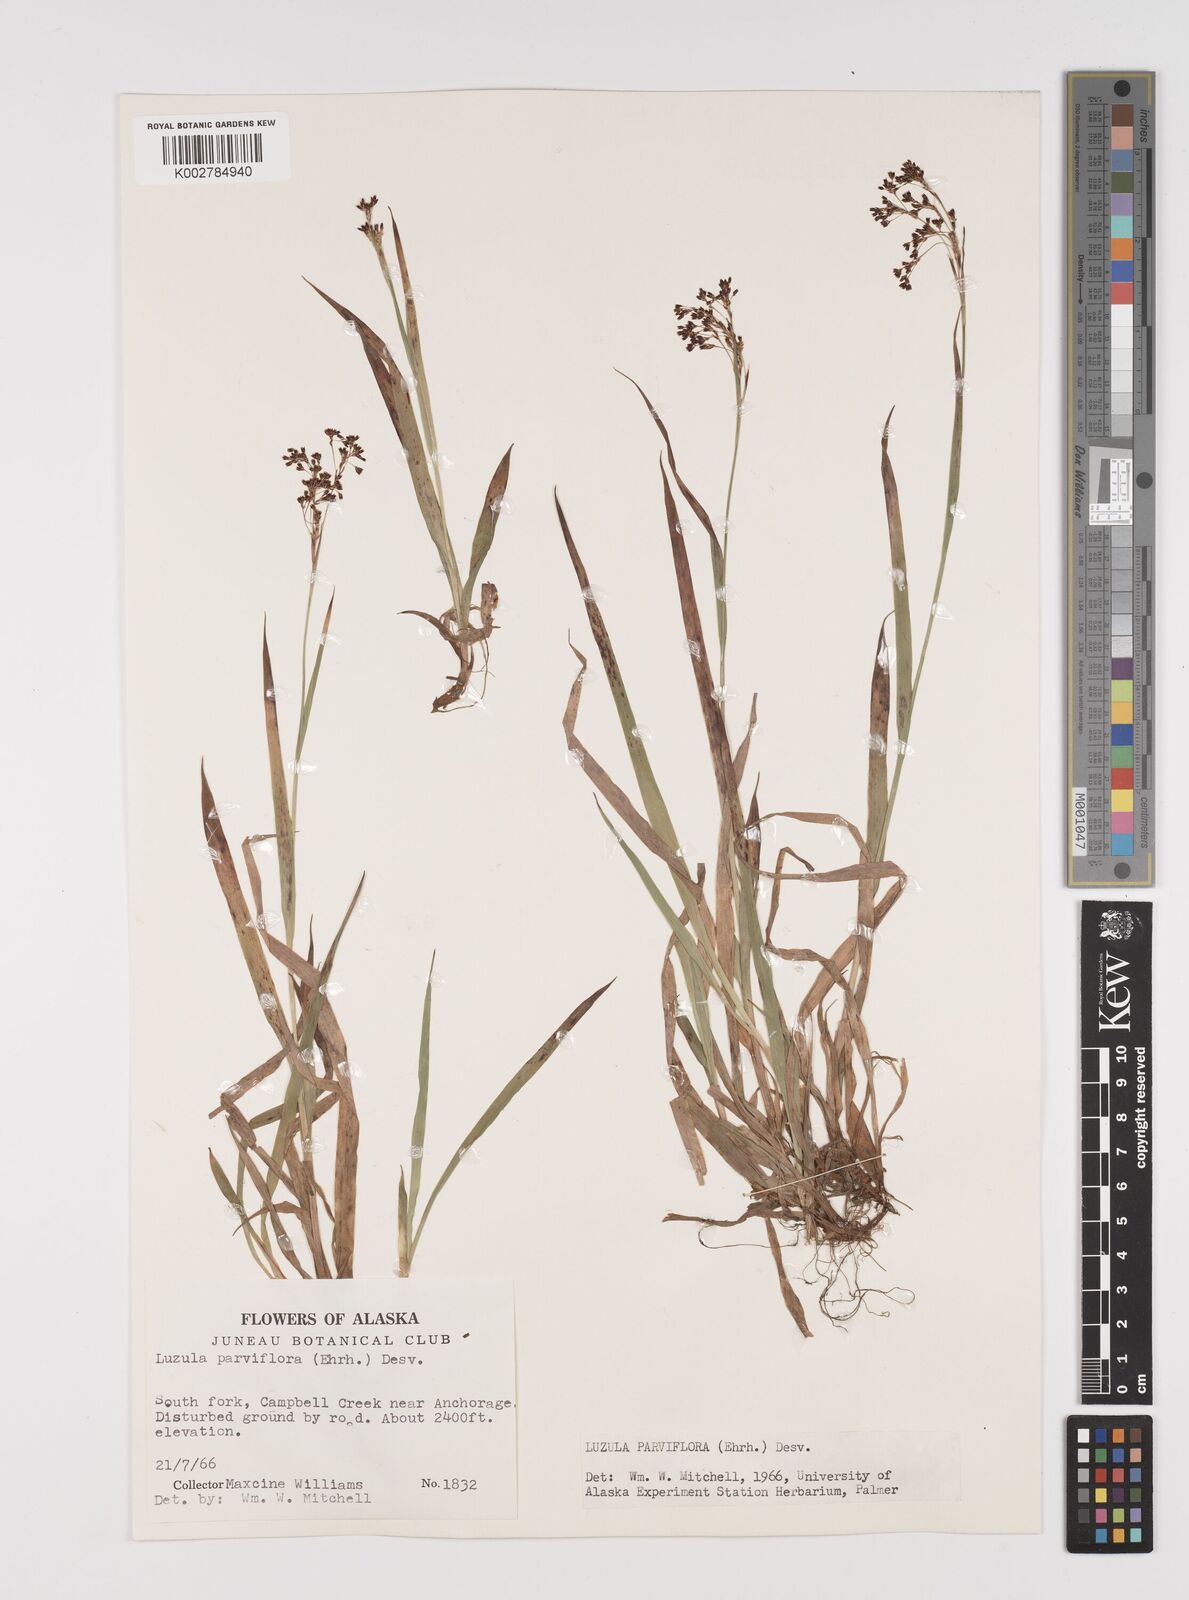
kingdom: Plantae
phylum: Tracheophyta
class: Liliopsida
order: Poales
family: Juncaceae
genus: Luzula
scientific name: Luzula parviflora
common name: Millet woodrush
